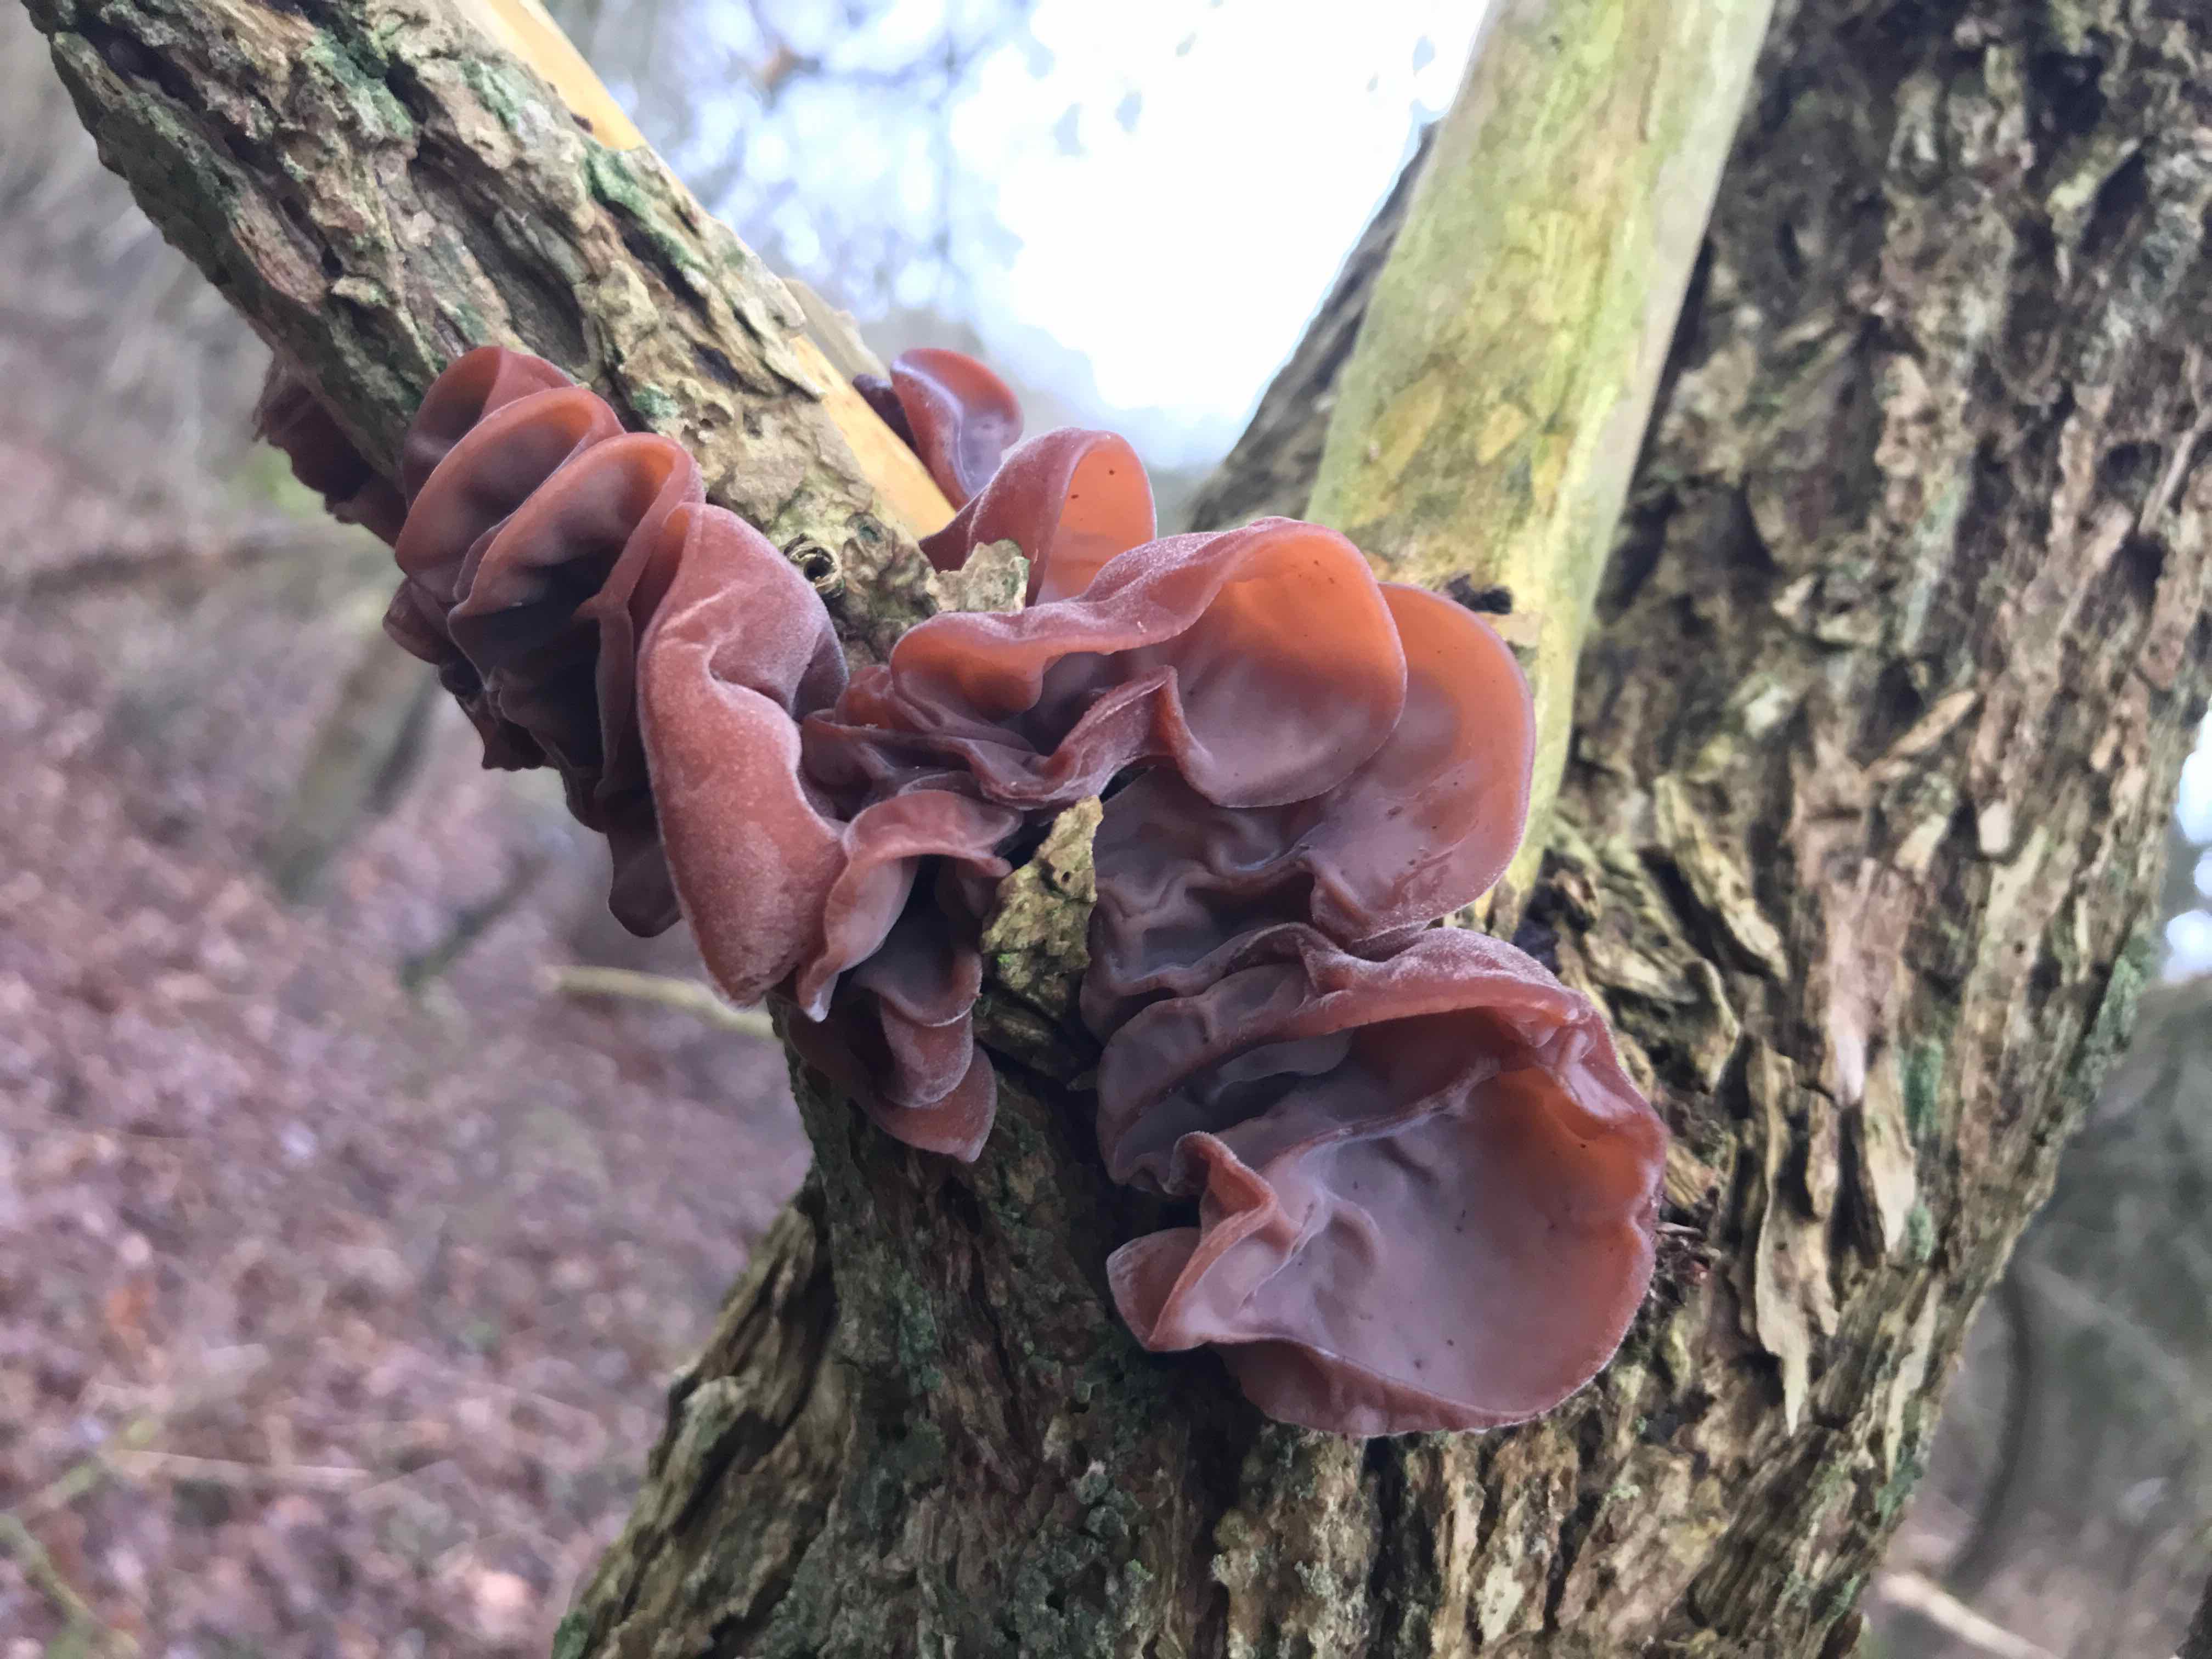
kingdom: Fungi
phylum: Basidiomycota
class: Agaricomycetes
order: Auriculariales
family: Auriculariaceae
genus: Auricularia
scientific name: Auricularia auricula-judae
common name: almindelig judasøre
